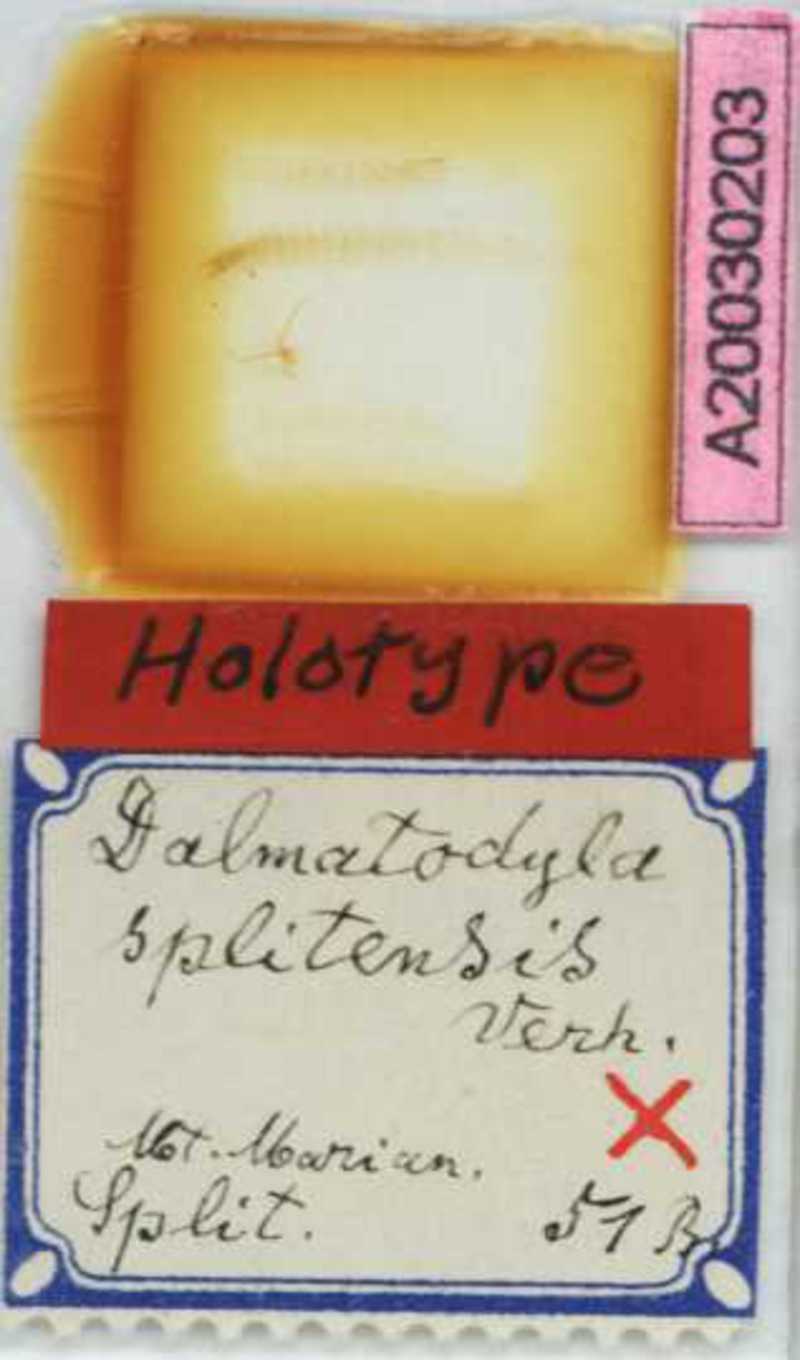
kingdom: Animalia
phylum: Arthropoda
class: Chilopoda
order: Geophilomorpha
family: Schendylidae
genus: Haploschendyla
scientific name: Haploschendyla Dalmatodyla splitensis
